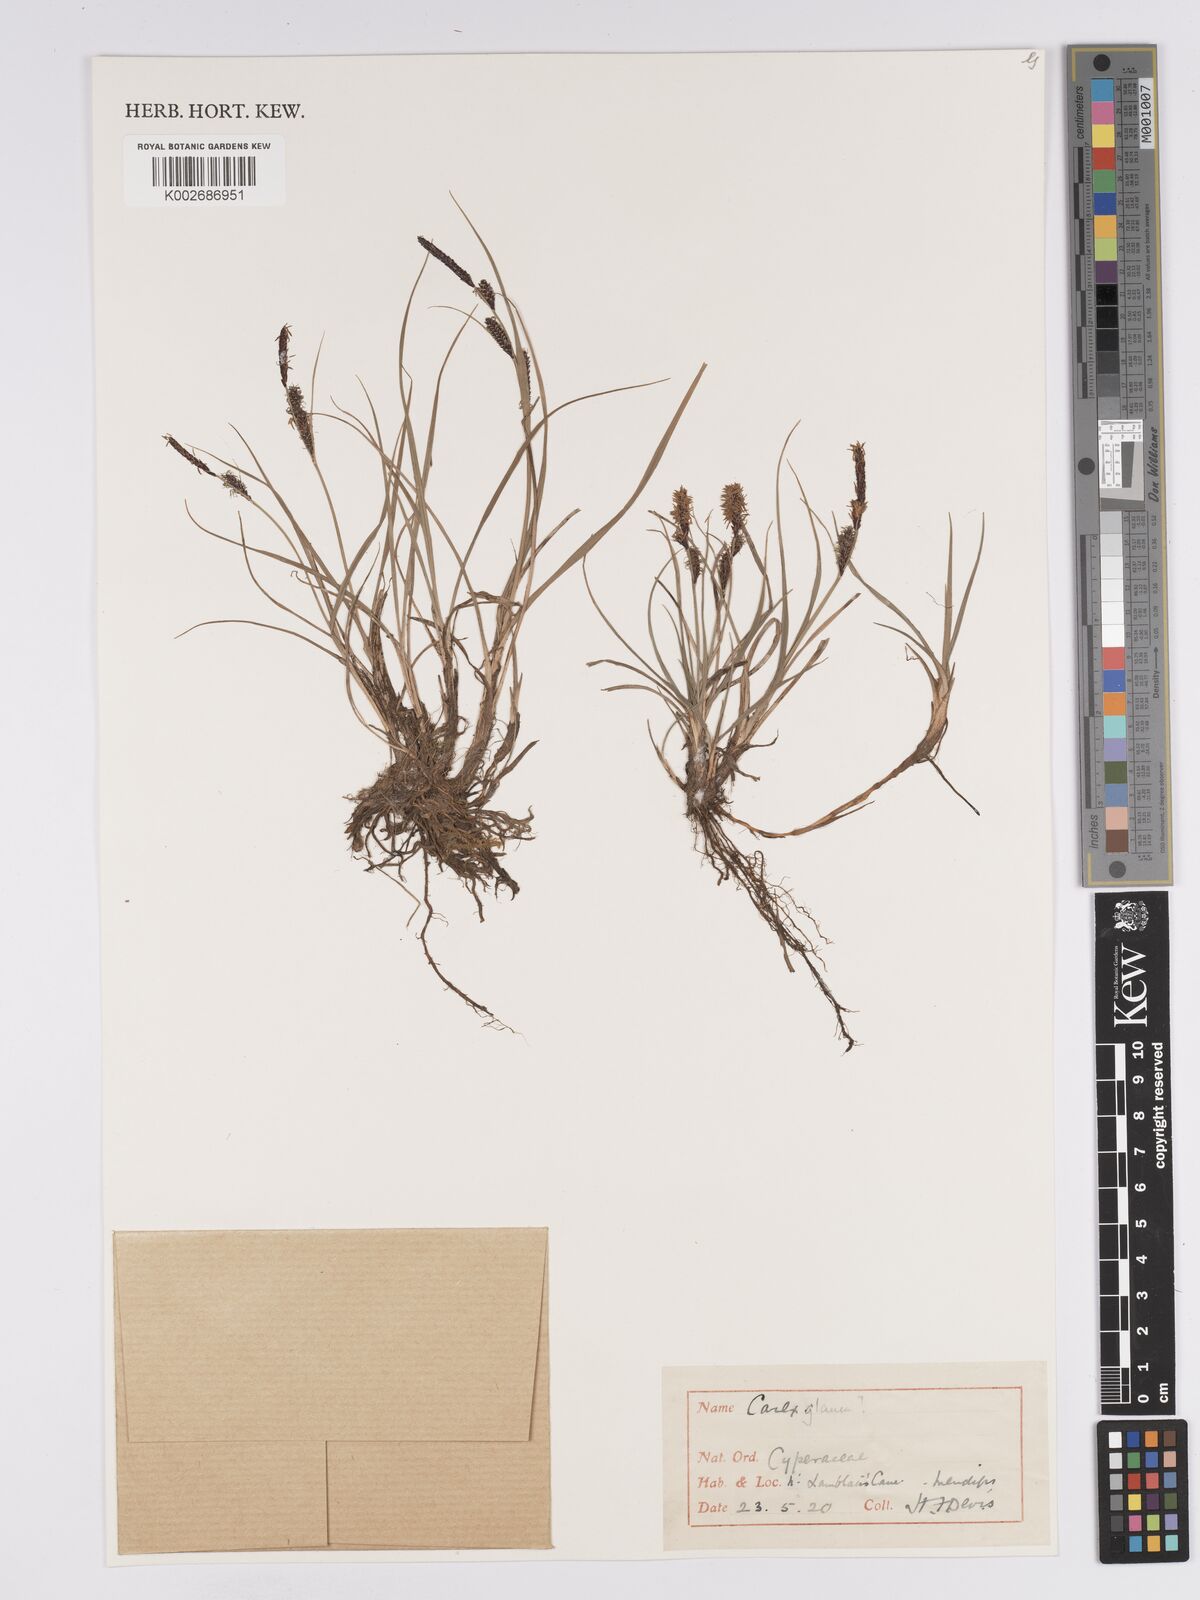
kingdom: Plantae
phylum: Tracheophyta
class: Liliopsida
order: Poales
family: Cyperaceae
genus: Carex
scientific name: Carex nigra
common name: Common sedge
